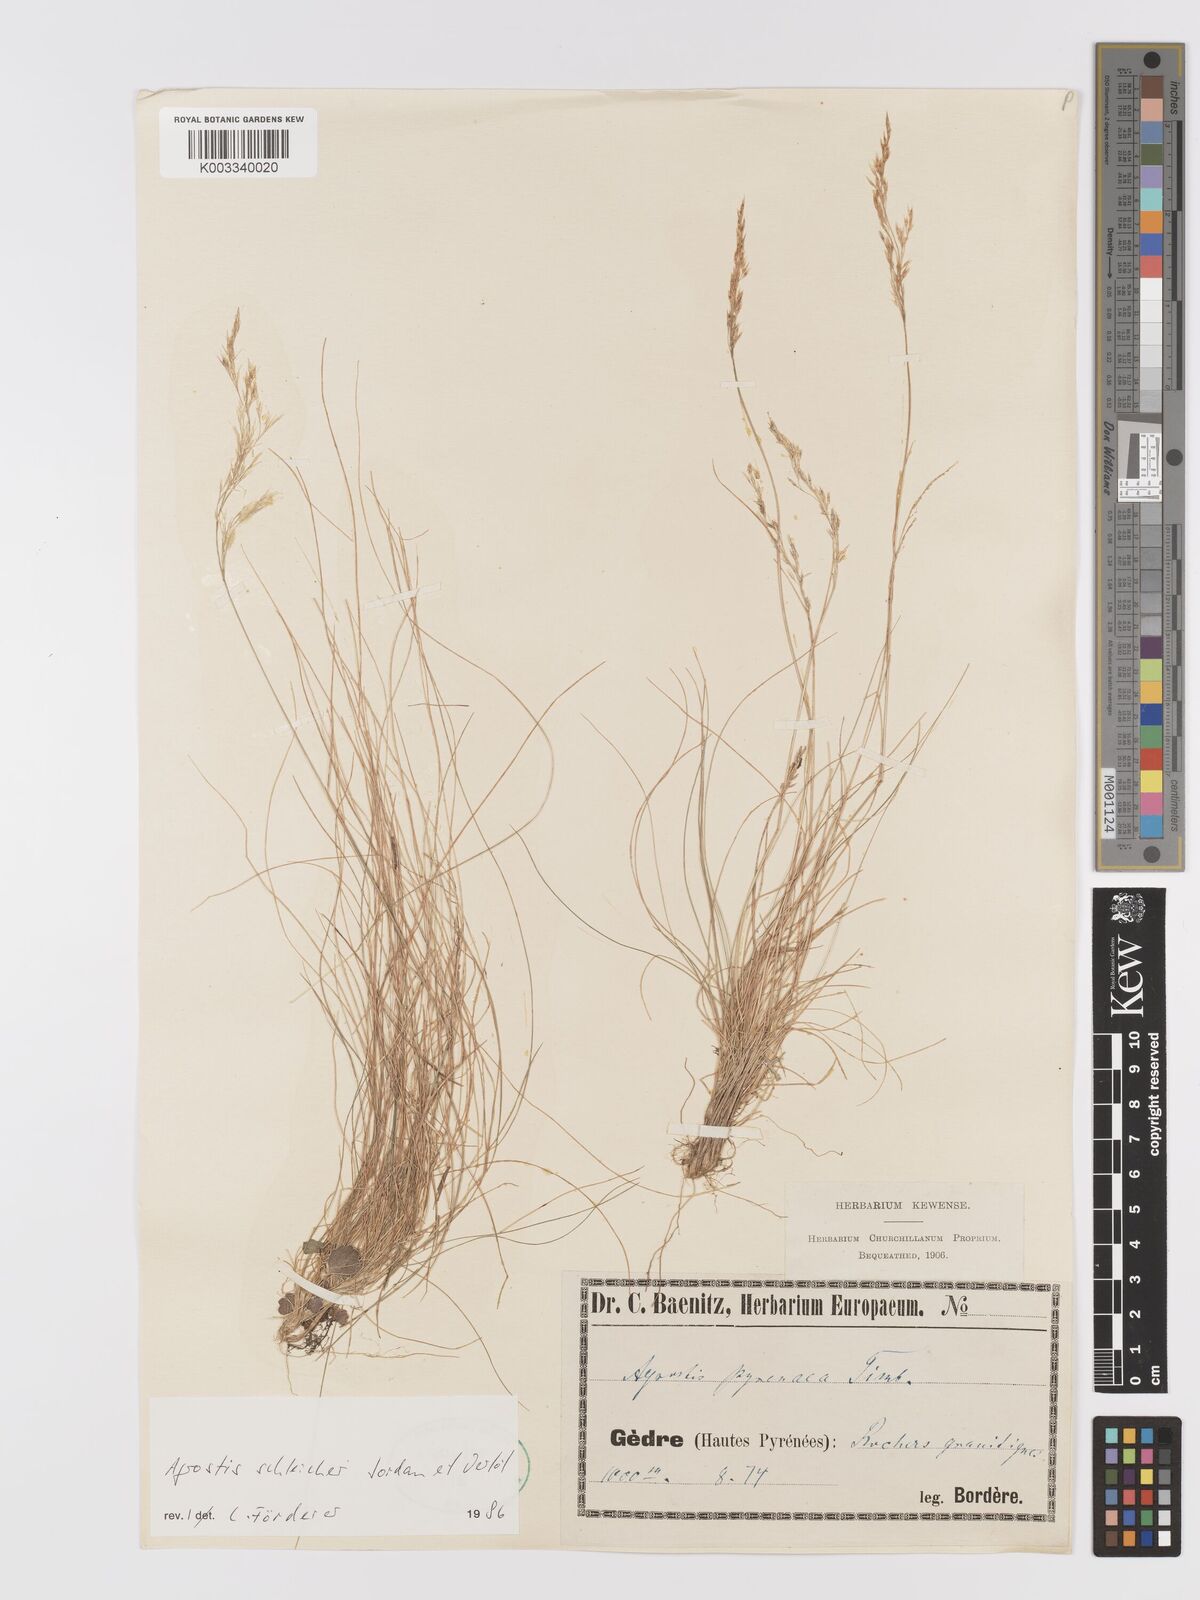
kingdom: Plantae
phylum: Tracheophyta
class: Liliopsida
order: Poales
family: Poaceae
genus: Alpagrostis
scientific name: Alpagrostis schleicheri
